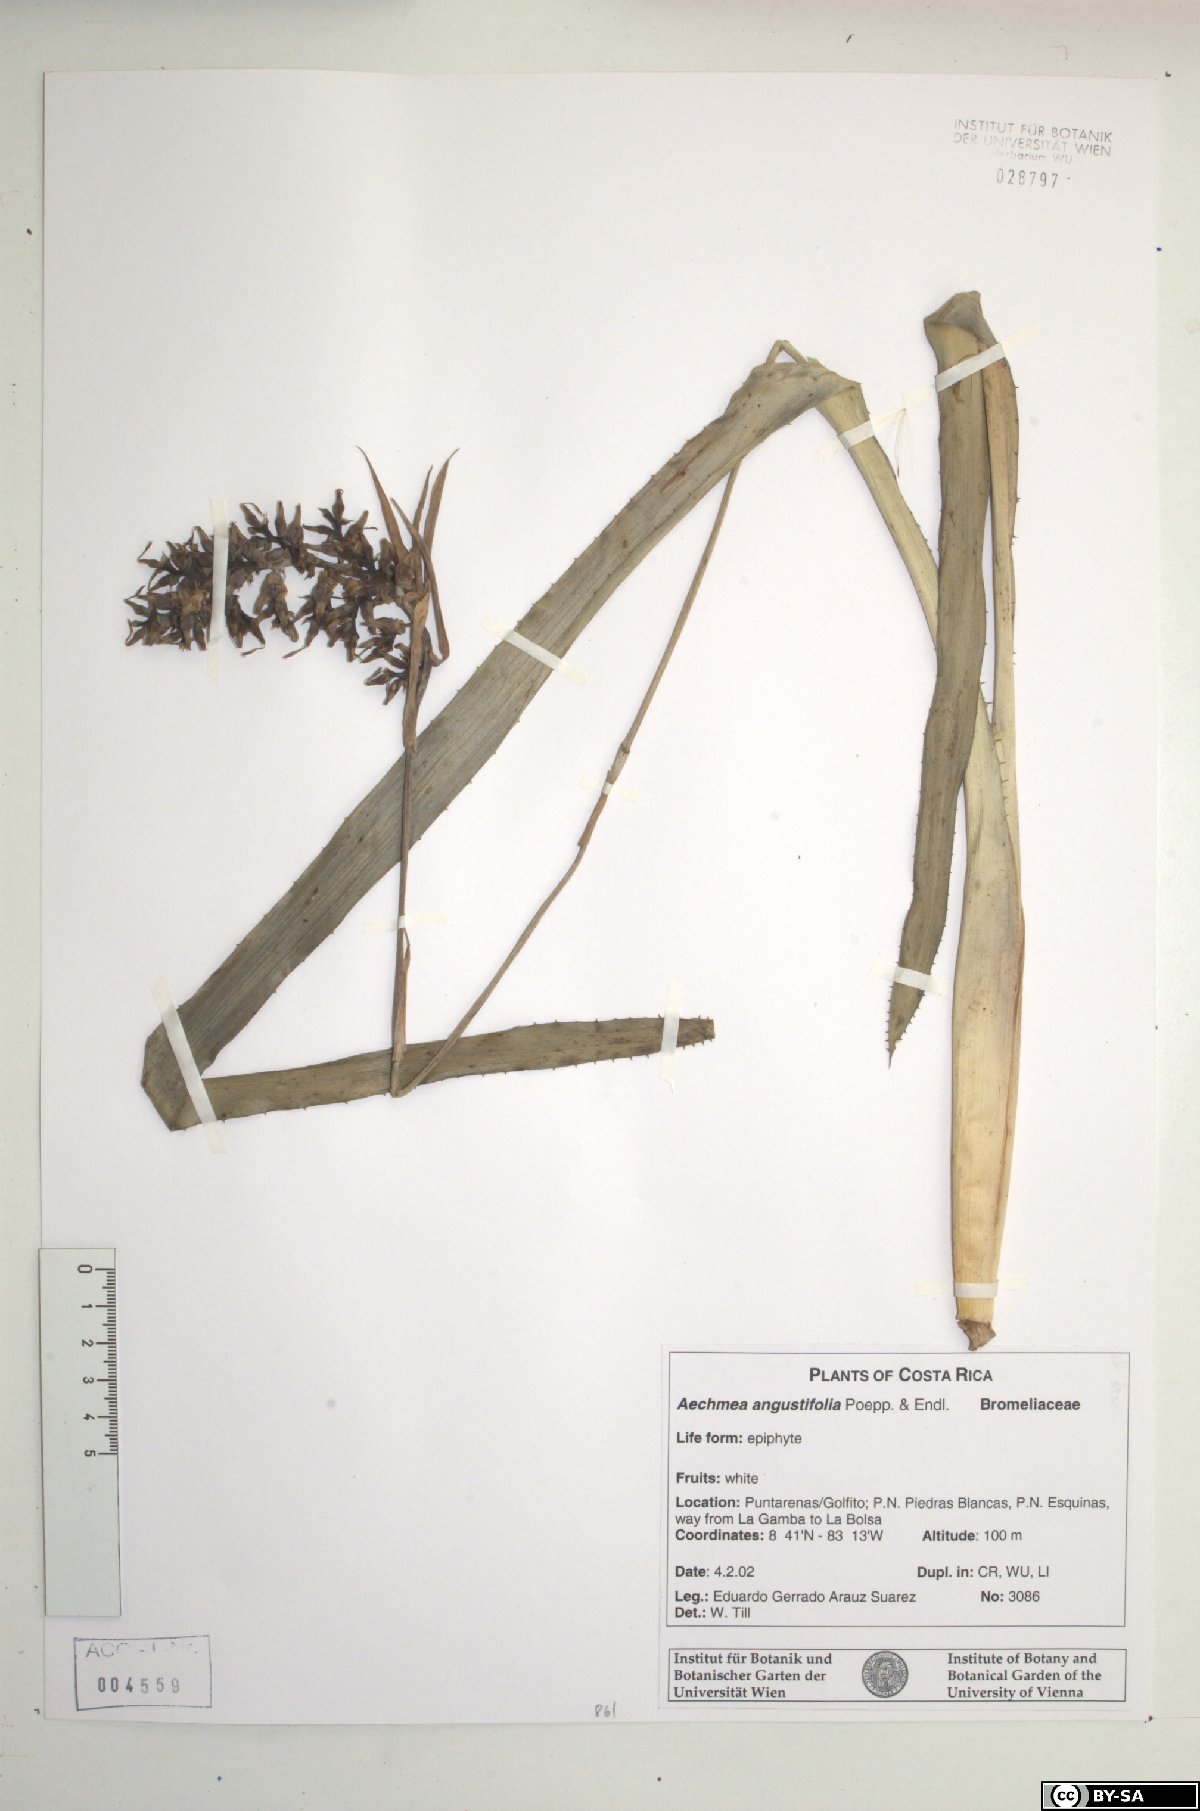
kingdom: Plantae
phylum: Tracheophyta
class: Liliopsida
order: Poales
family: Bromeliaceae
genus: Aechmea
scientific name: Aechmea angustifolia
